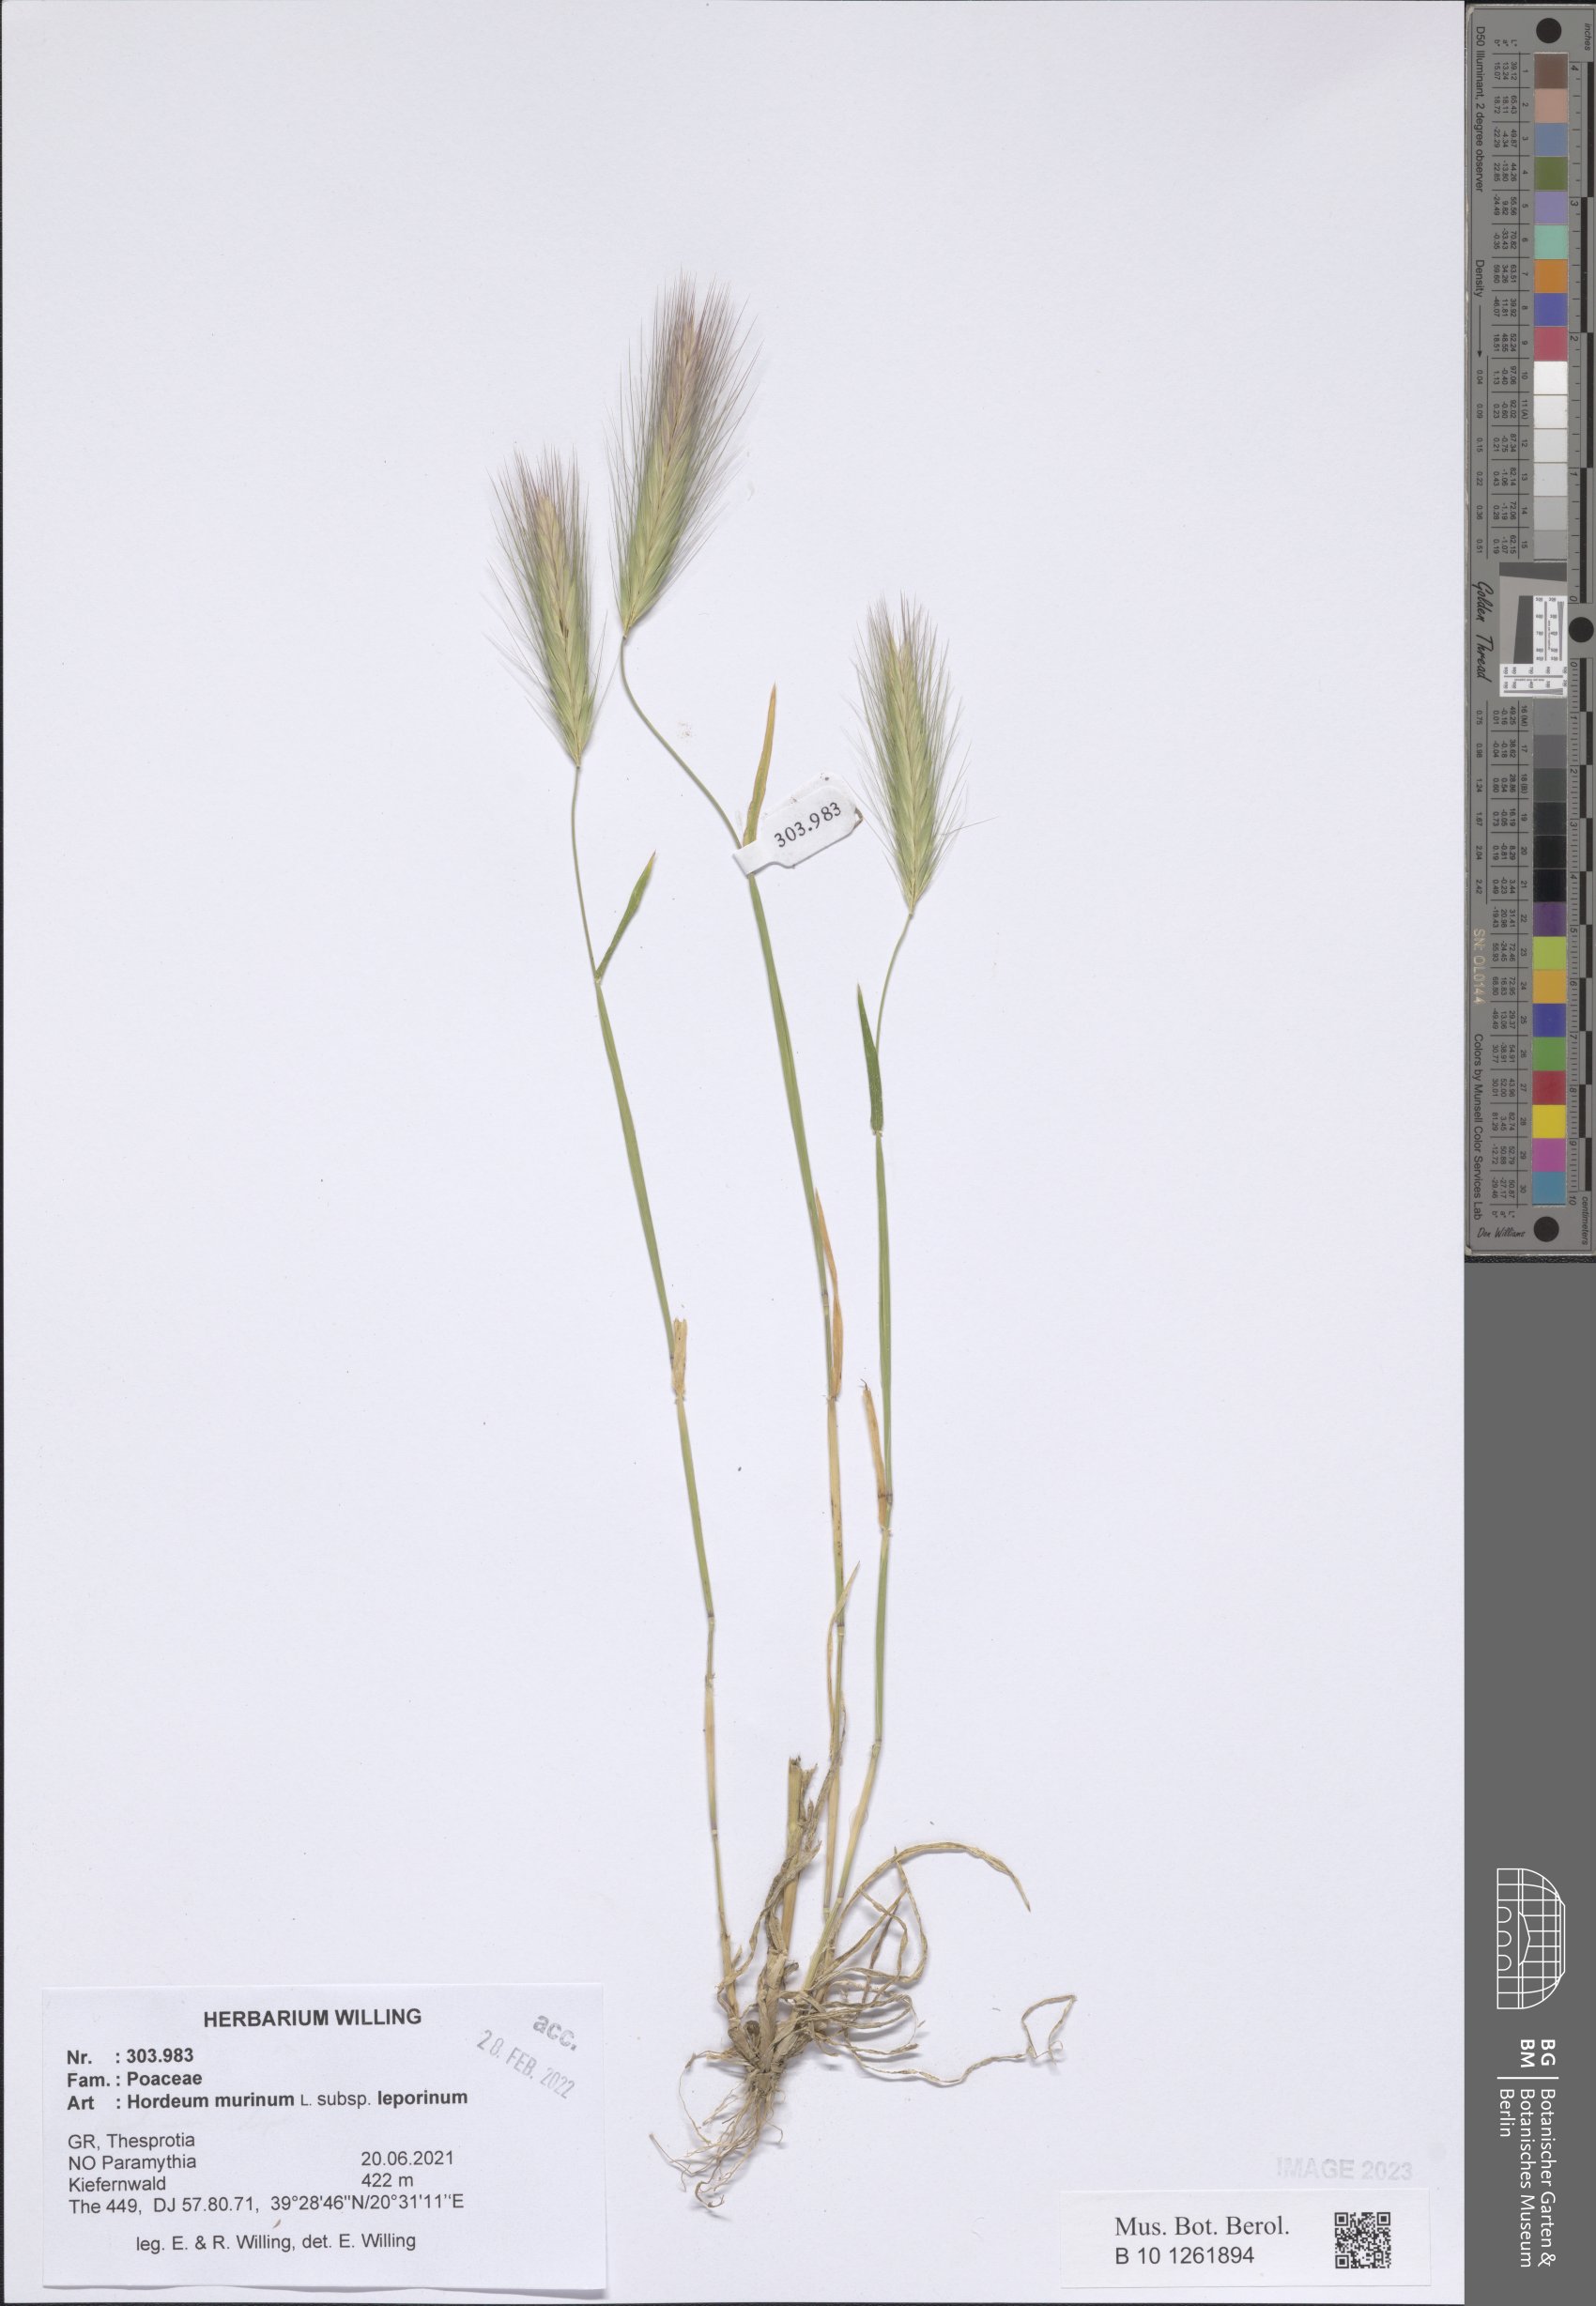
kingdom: Plantae
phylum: Tracheophyta
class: Liliopsida
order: Poales
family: Poaceae
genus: Hordeum
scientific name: Hordeum murinum
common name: Wall barley
